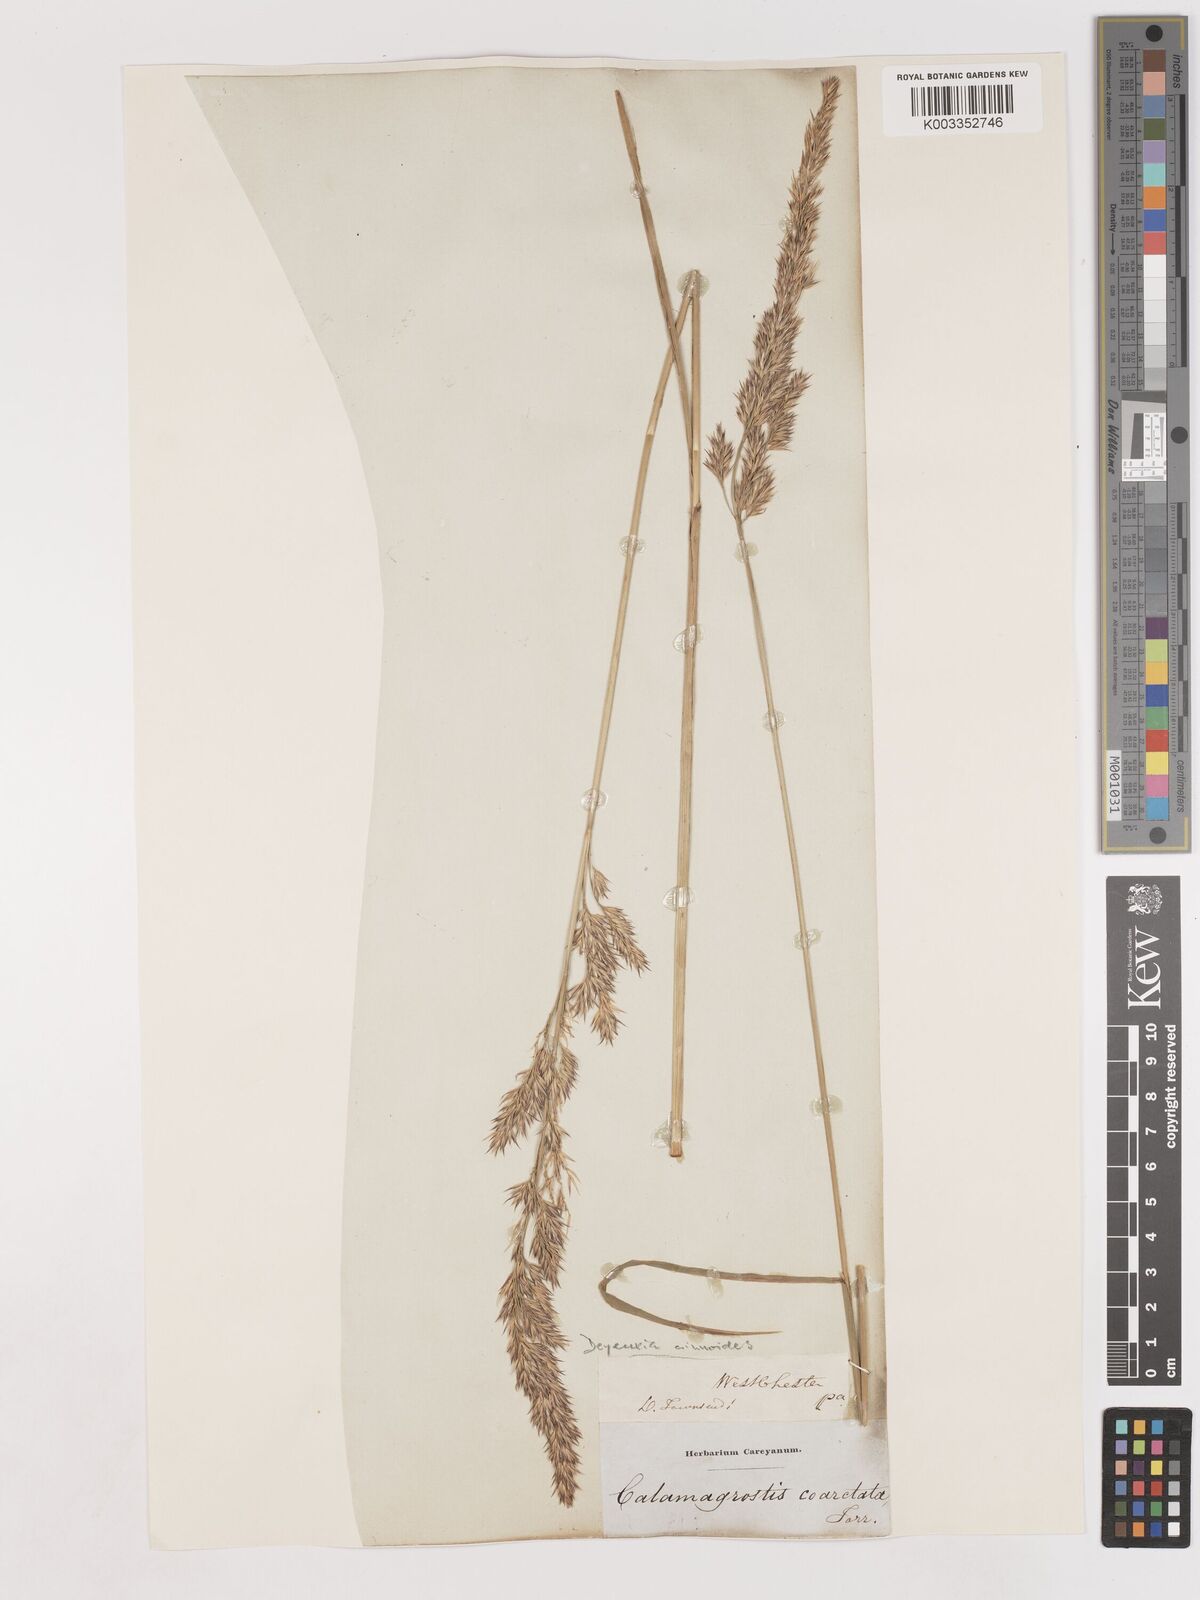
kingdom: Plantae
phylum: Tracheophyta
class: Liliopsida
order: Poales
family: Poaceae
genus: Calamagrostis
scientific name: Calamagrostis canadensis
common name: Canada bluejoint
